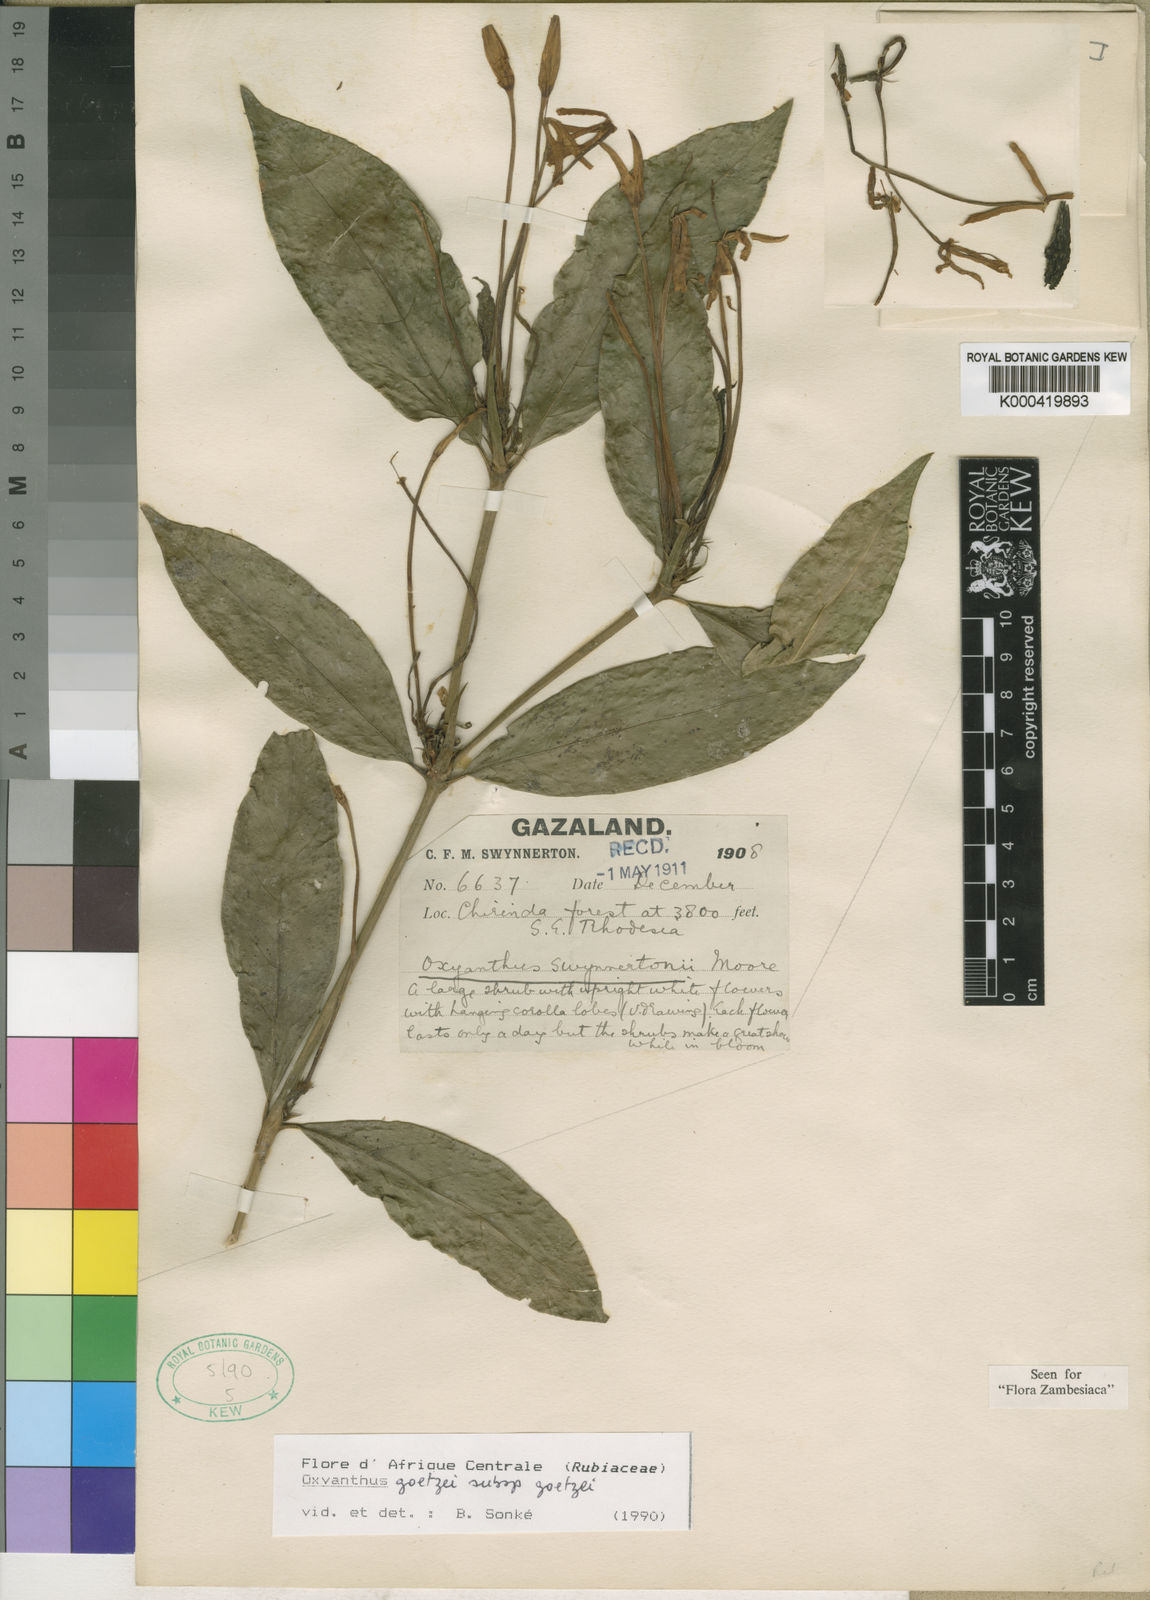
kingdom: Plantae
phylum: Tracheophyta
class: Magnoliopsida
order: Gentianales
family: Rubiaceae
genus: Oxyanthus
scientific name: Oxyanthus goetzei
